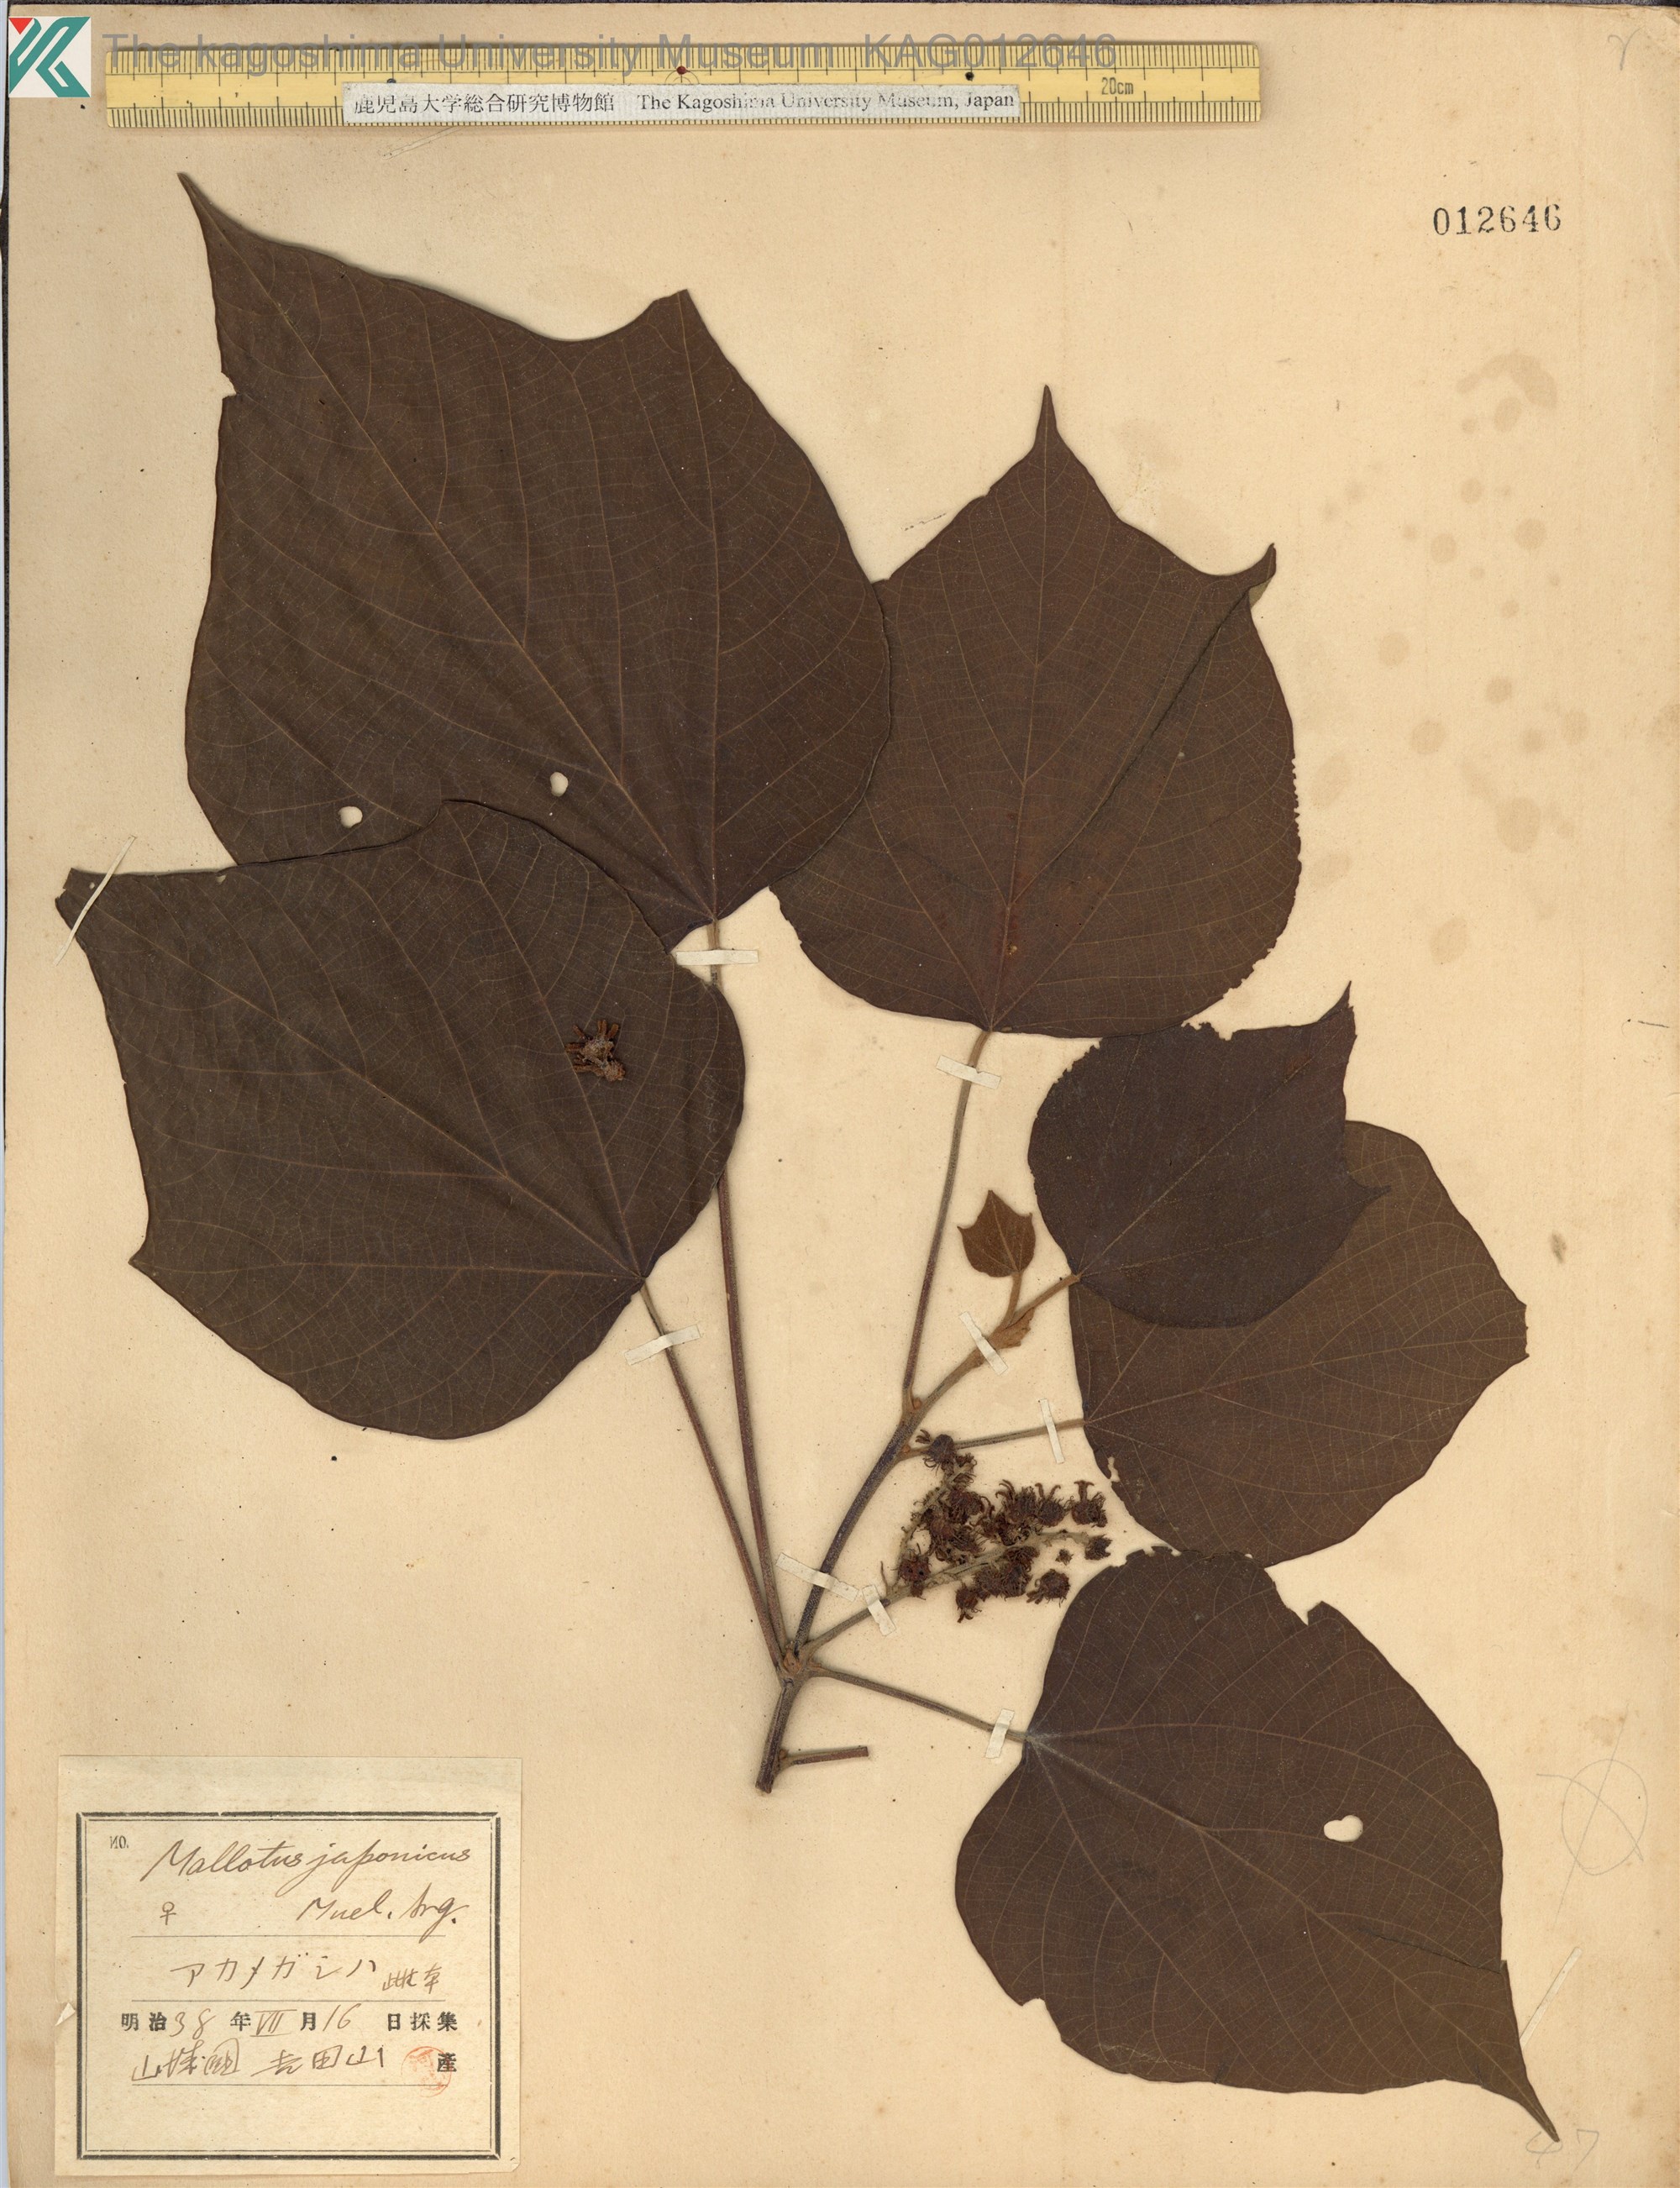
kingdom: Plantae
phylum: Tracheophyta
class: Magnoliopsida
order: Malpighiales
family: Euphorbiaceae
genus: Mallotus
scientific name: Mallotus japonicus
